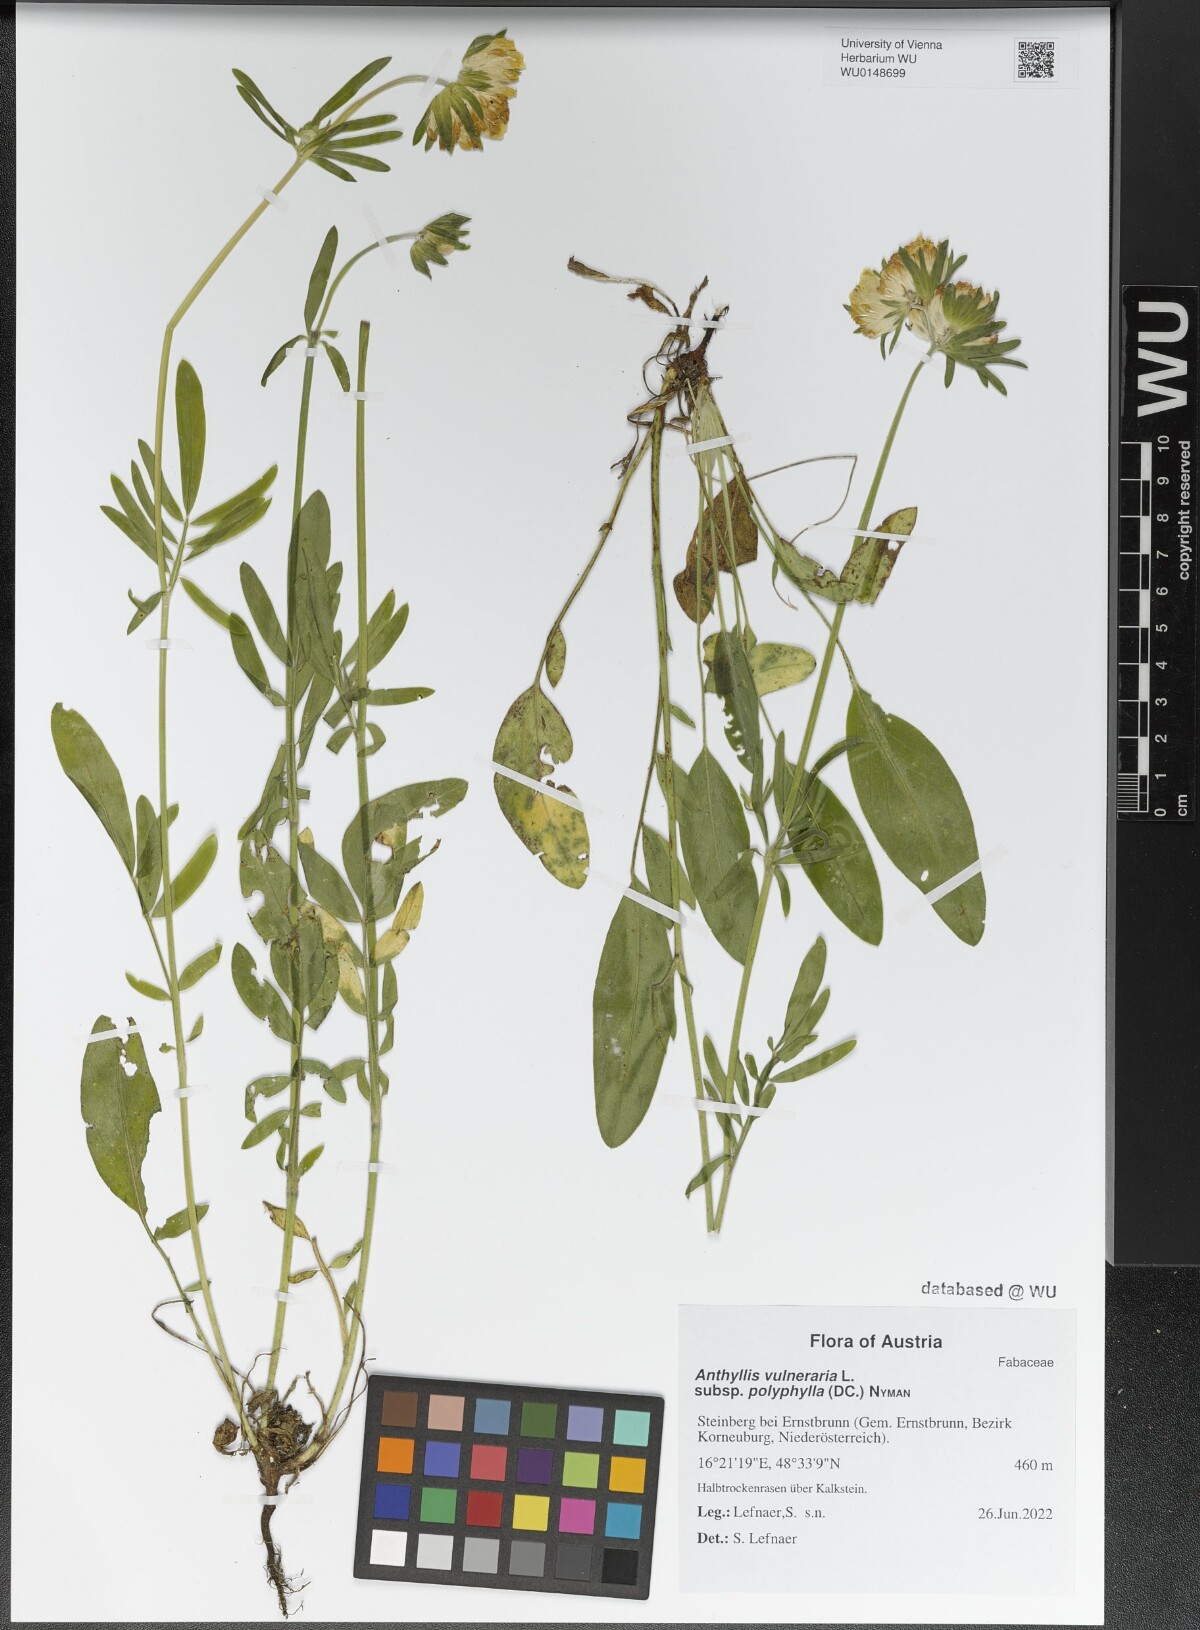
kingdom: Plantae
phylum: Tracheophyta
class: Magnoliopsida
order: Fabales
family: Fabaceae
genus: Anthyllis
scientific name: Anthyllis vulneraria
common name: Kidney vetch
